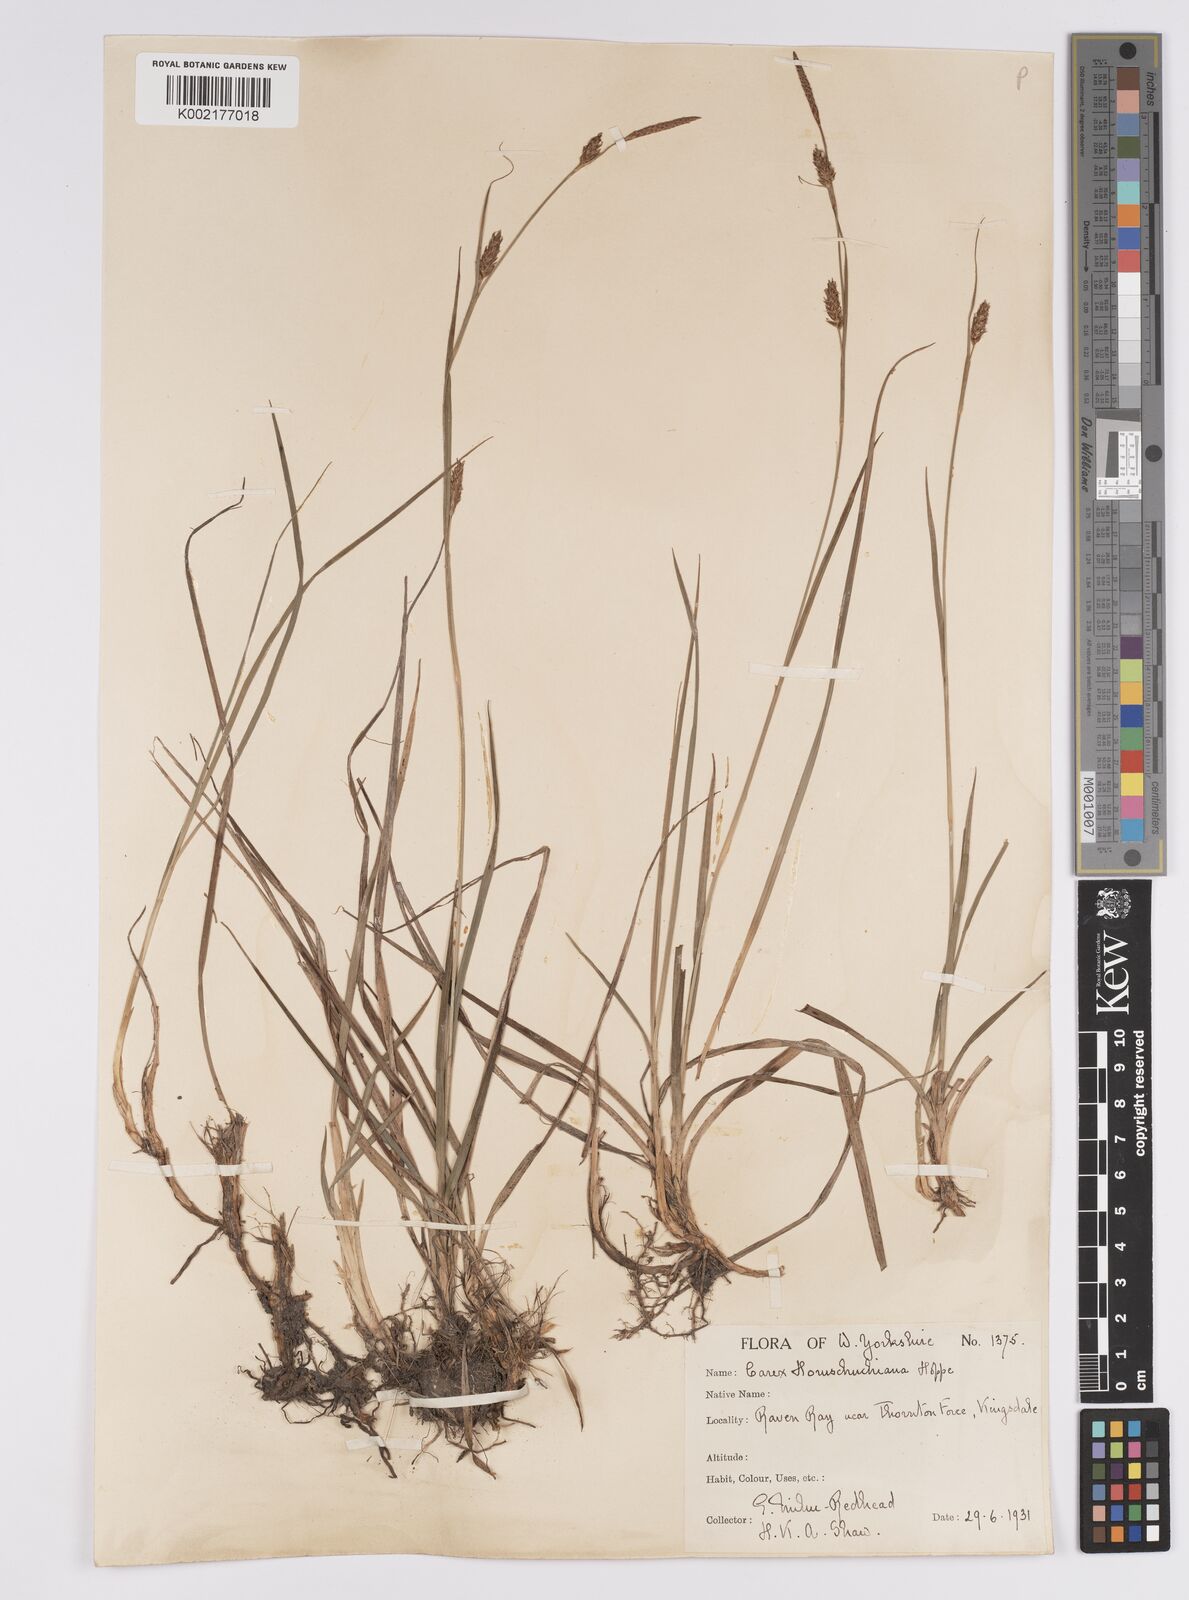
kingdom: Plantae
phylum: Tracheophyta
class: Liliopsida
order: Poales
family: Cyperaceae
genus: Carex
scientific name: Carex hostiana
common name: Tawny sedge
